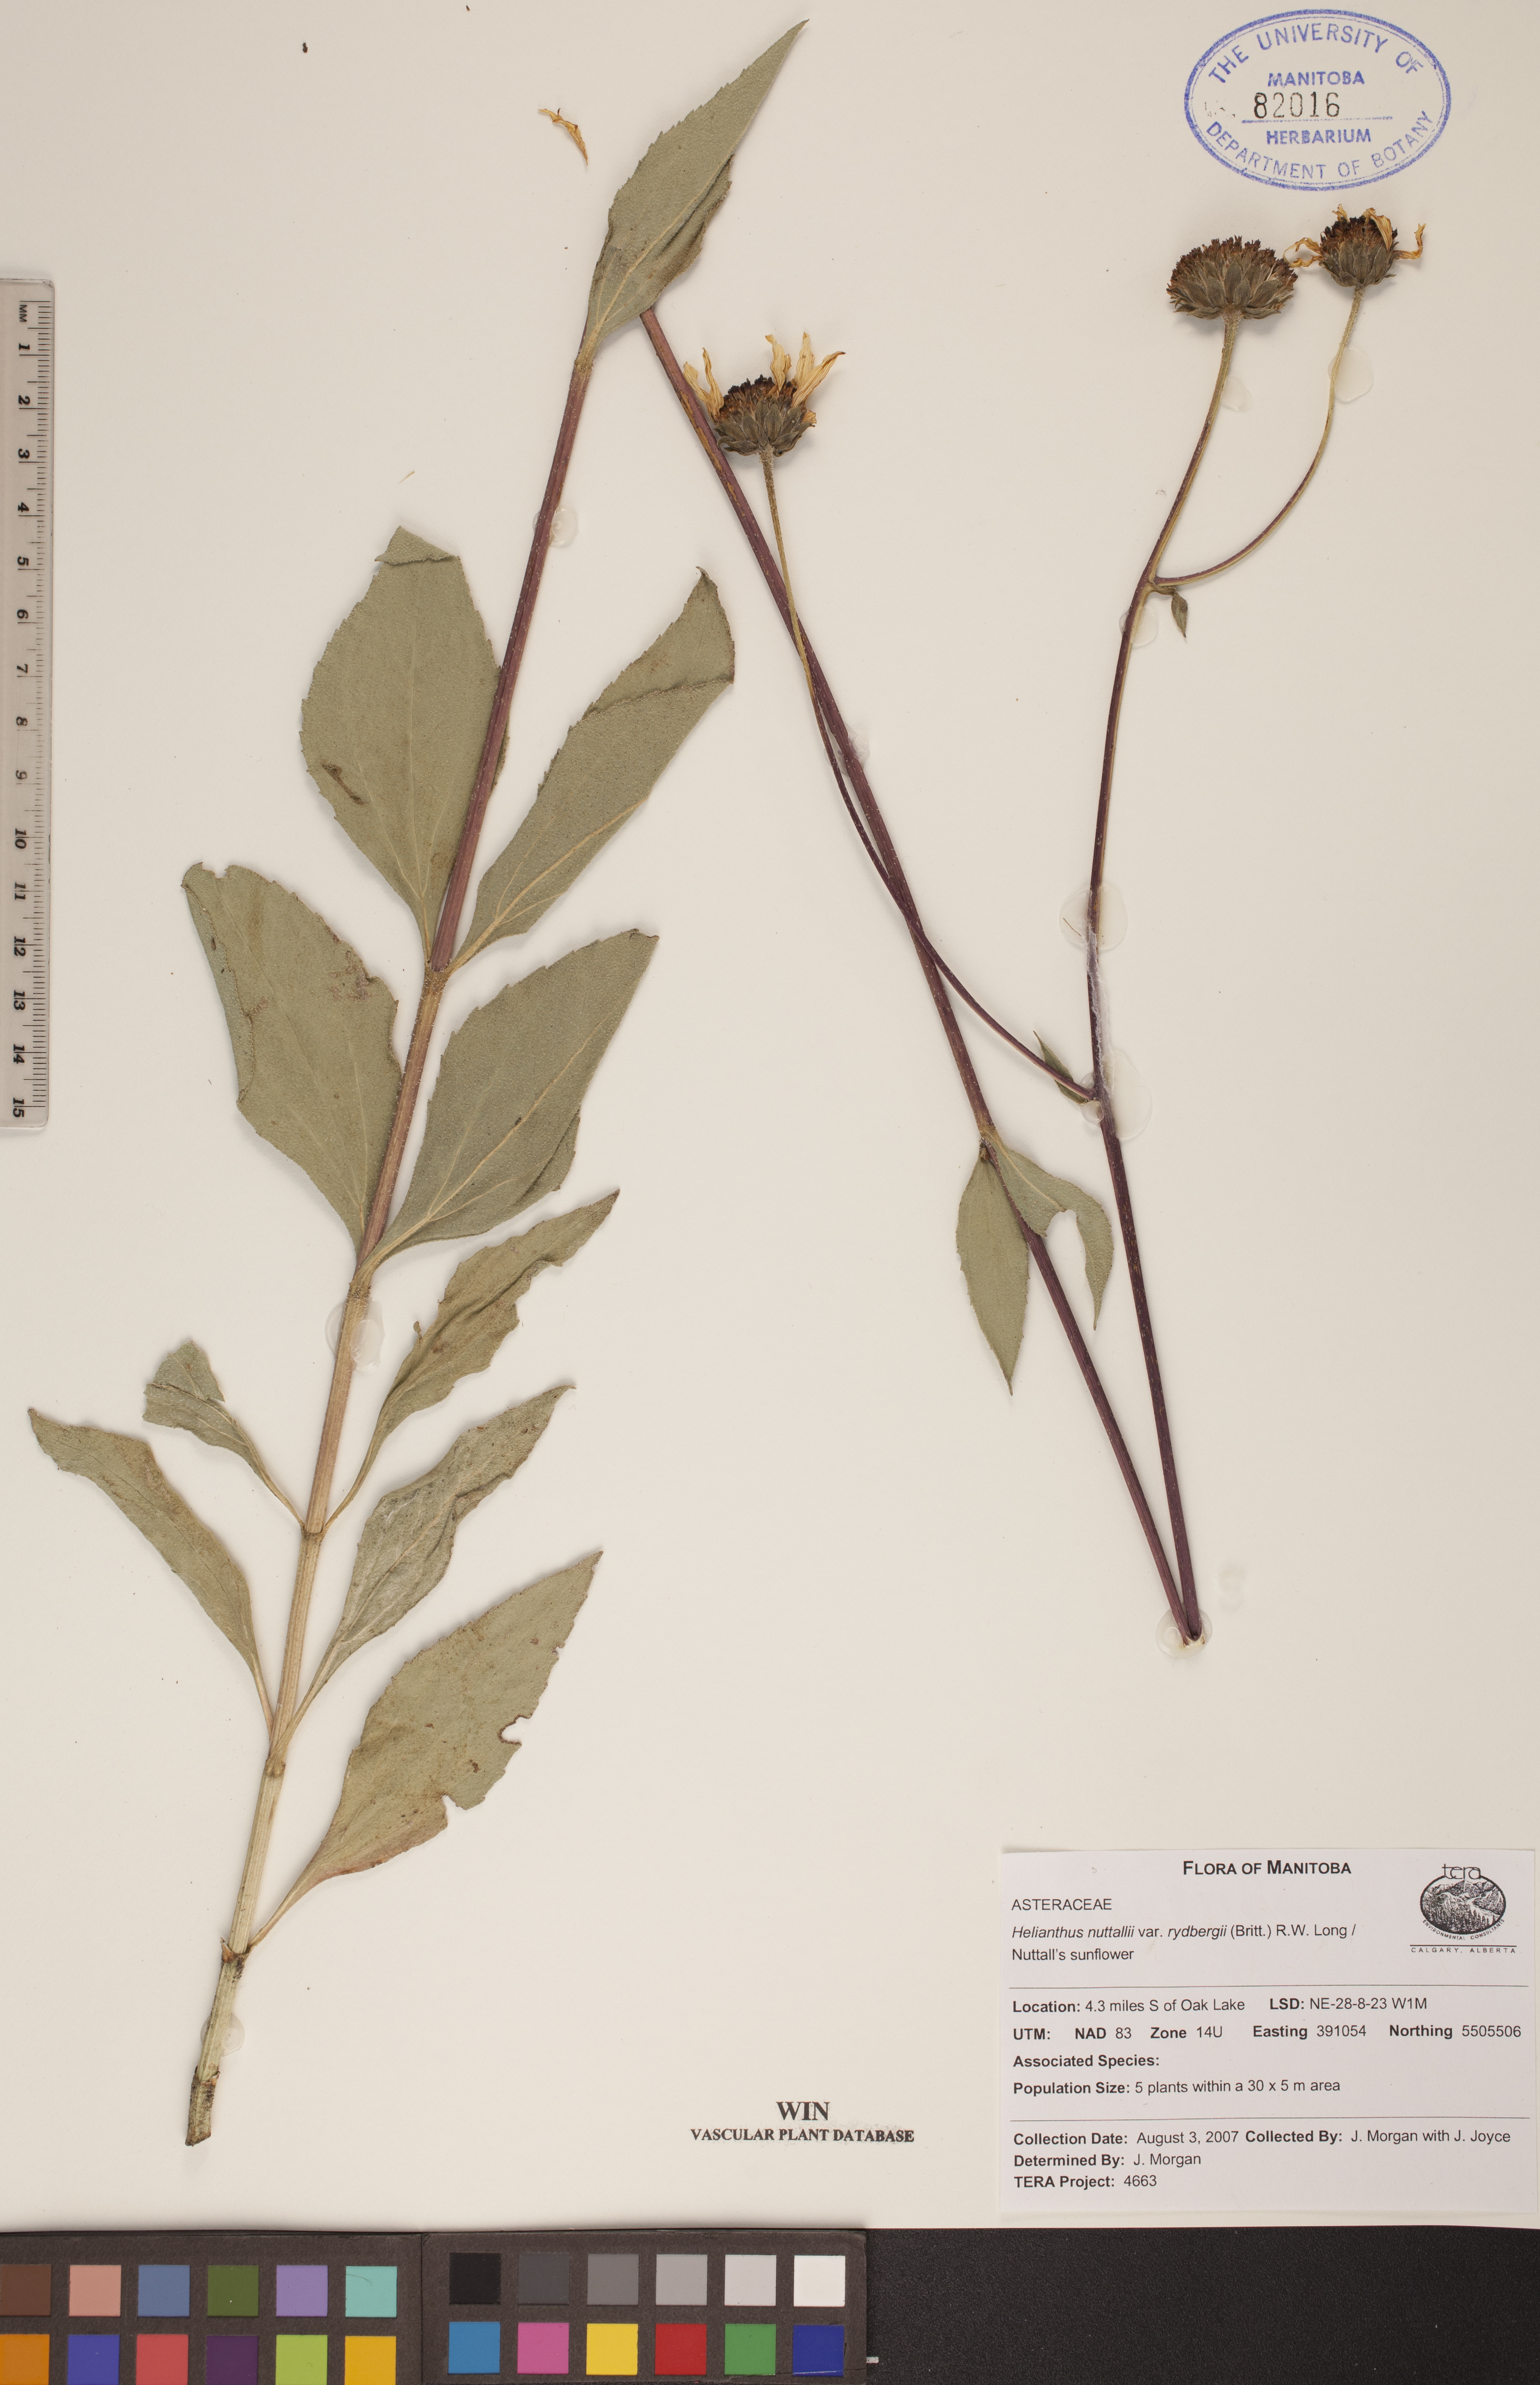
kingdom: Plantae
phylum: Tracheophyta
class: Magnoliopsida
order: Asterales
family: Asteraceae
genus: Helianthus
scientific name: Helianthus nuttallii
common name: Nuttall's sunflower
